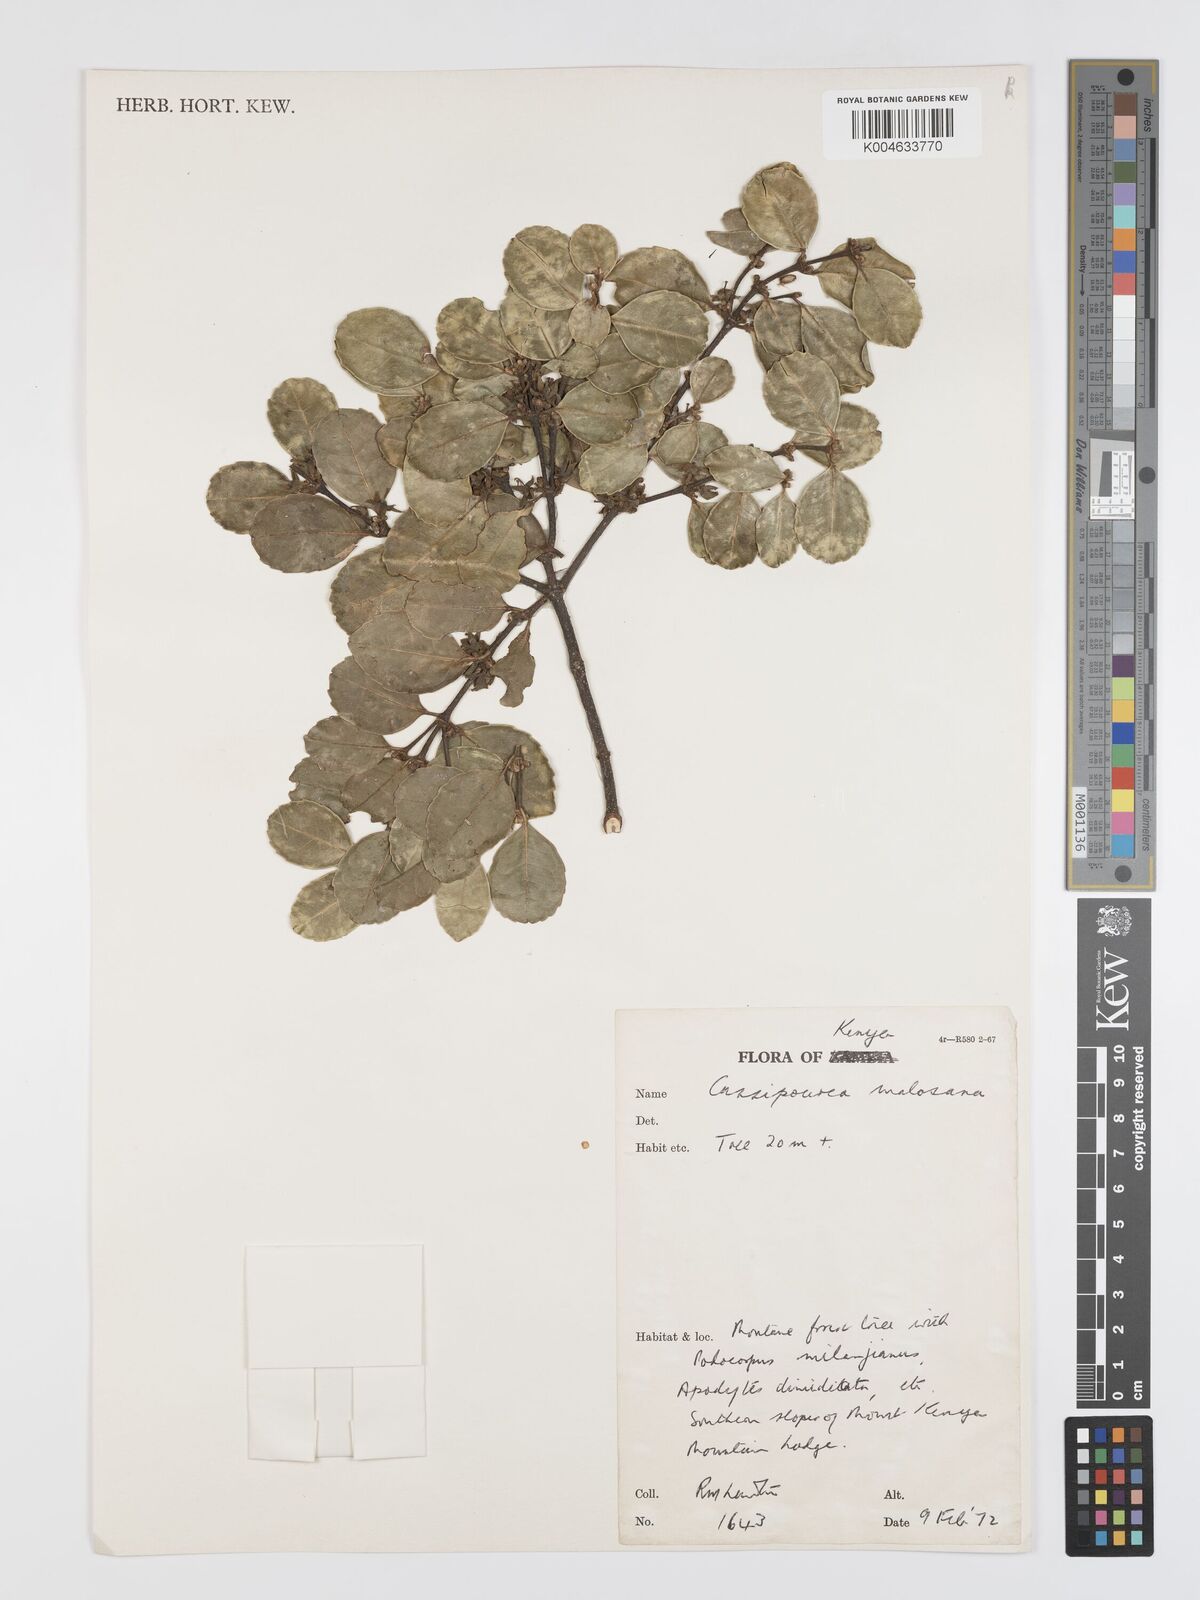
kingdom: Plantae
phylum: Tracheophyta
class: Magnoliopsida
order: Malpighiales
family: Rhizophoraceae
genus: Cassipourea
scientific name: Cassipourea malosana
